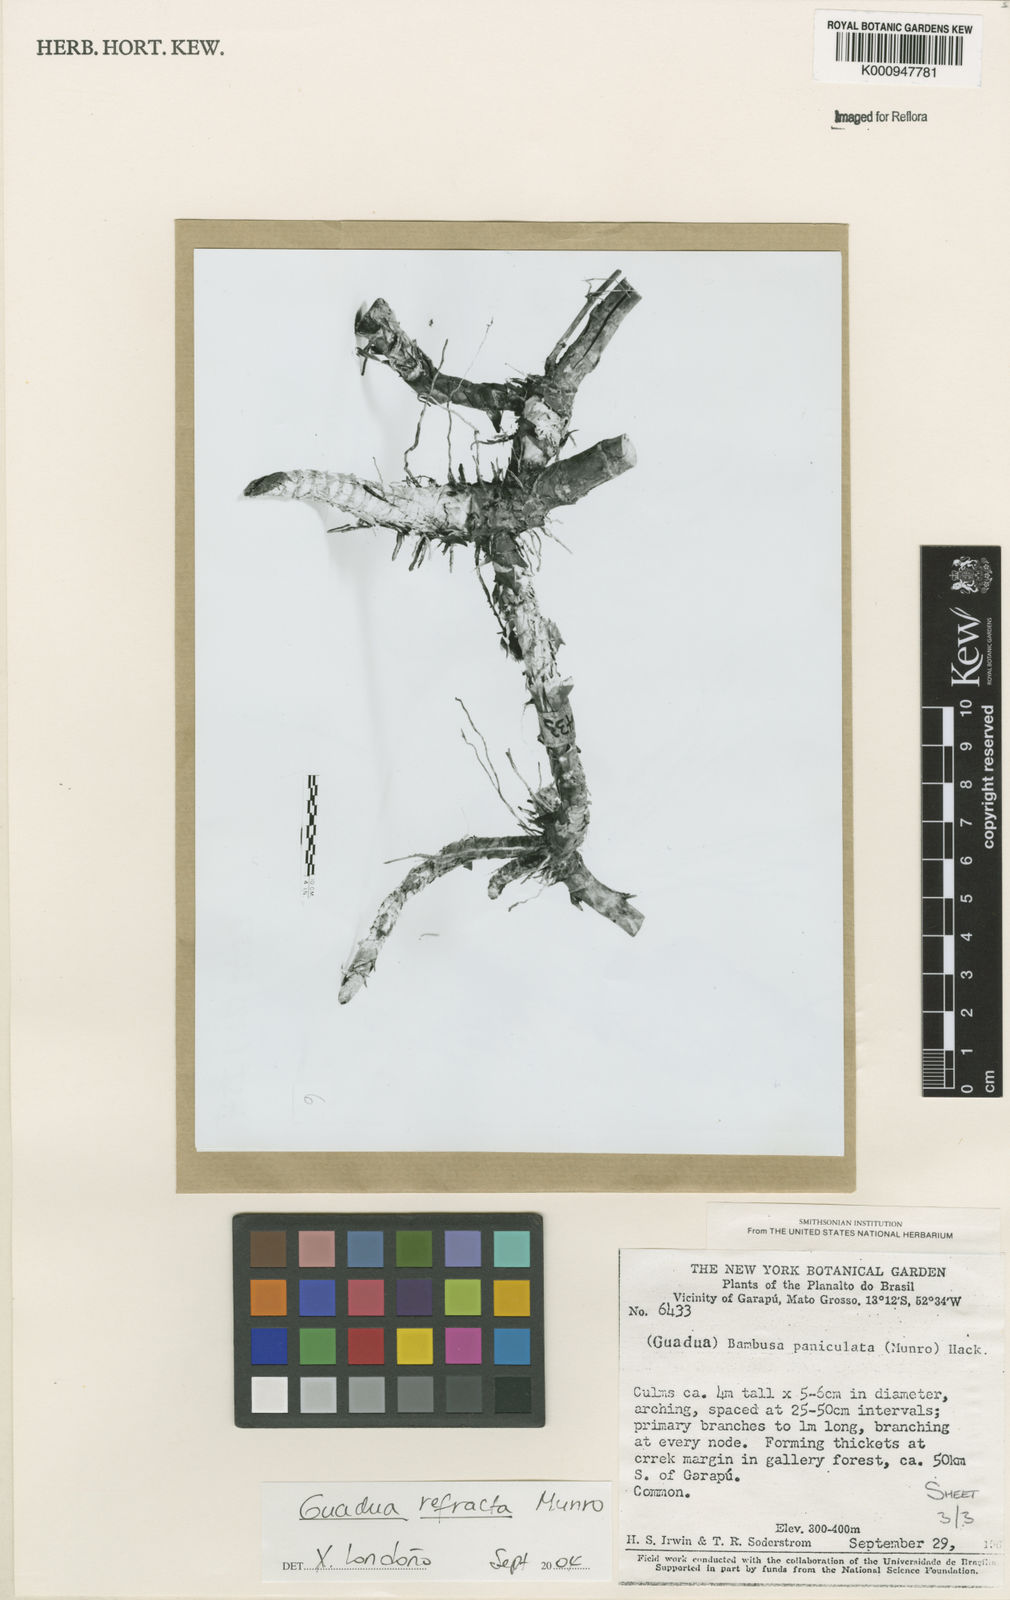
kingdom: Plantae
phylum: Tracheophyta
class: Liliopsida
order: Poales
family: Poaceae
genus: Guadua
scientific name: Guadua
